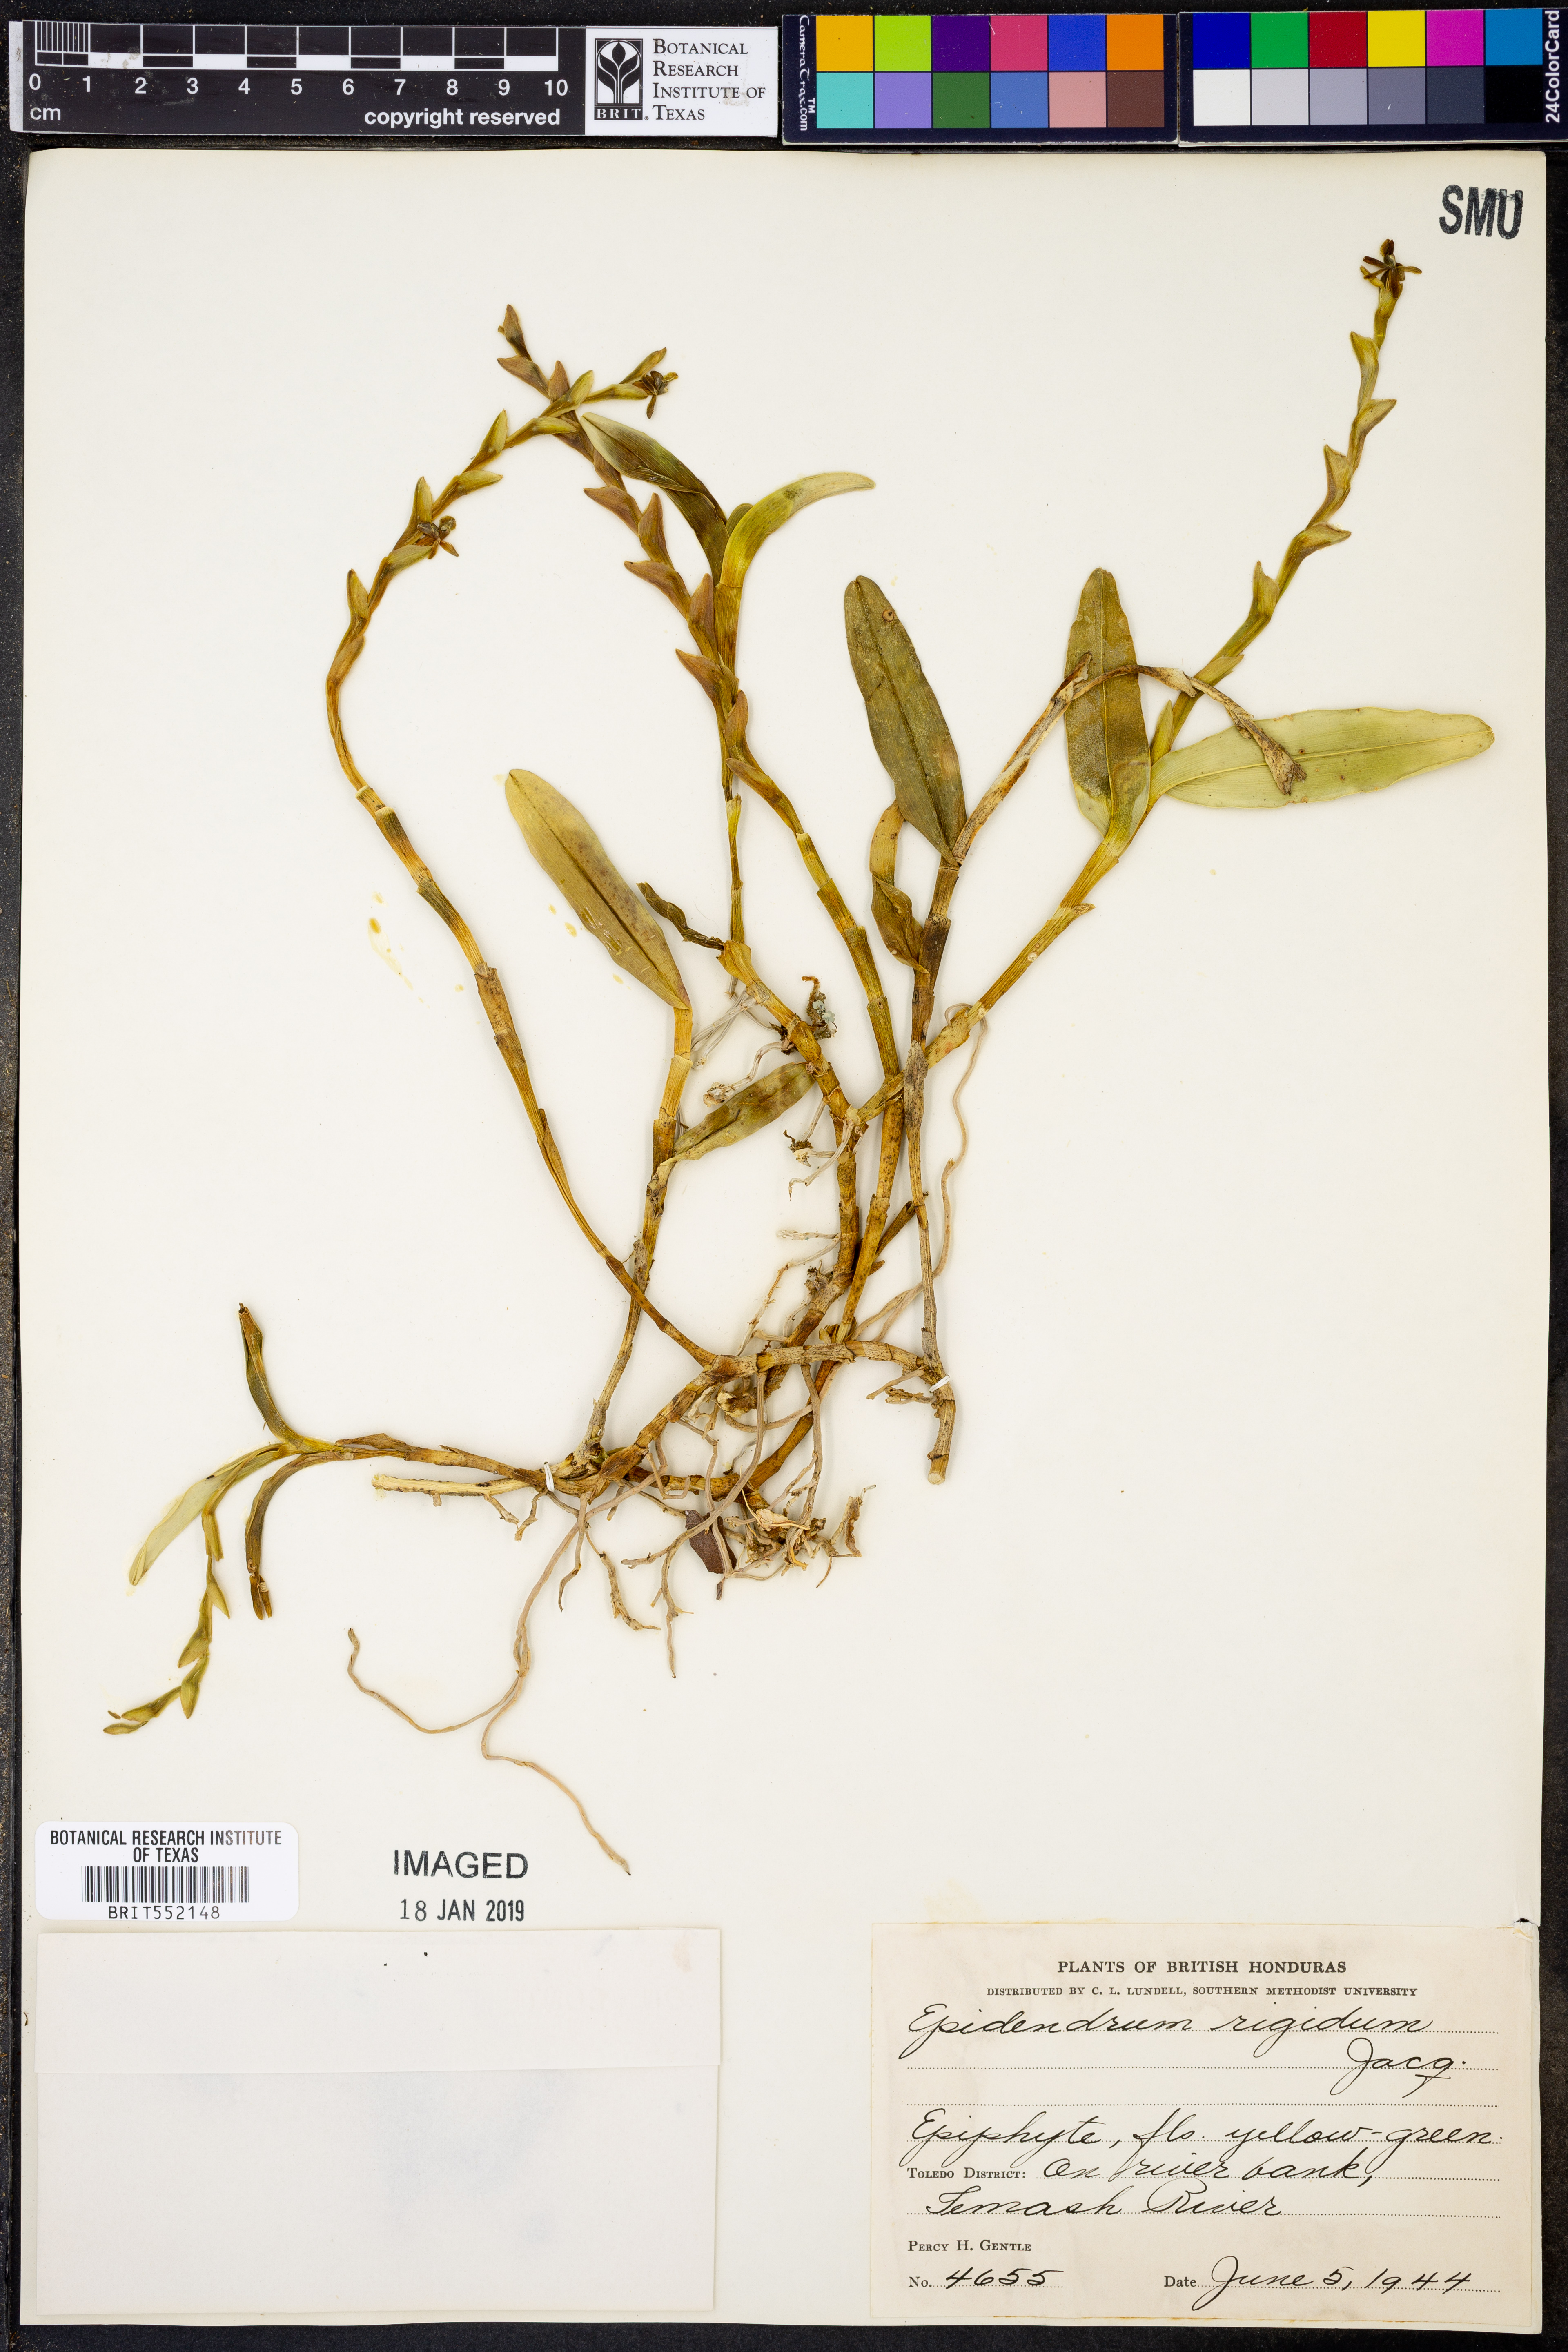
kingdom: Plantae
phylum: Tracheophyta
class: Liliopsida
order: Asparagales
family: Orchidaceae
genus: Epidendrum
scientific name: Epidendrum rigidum
